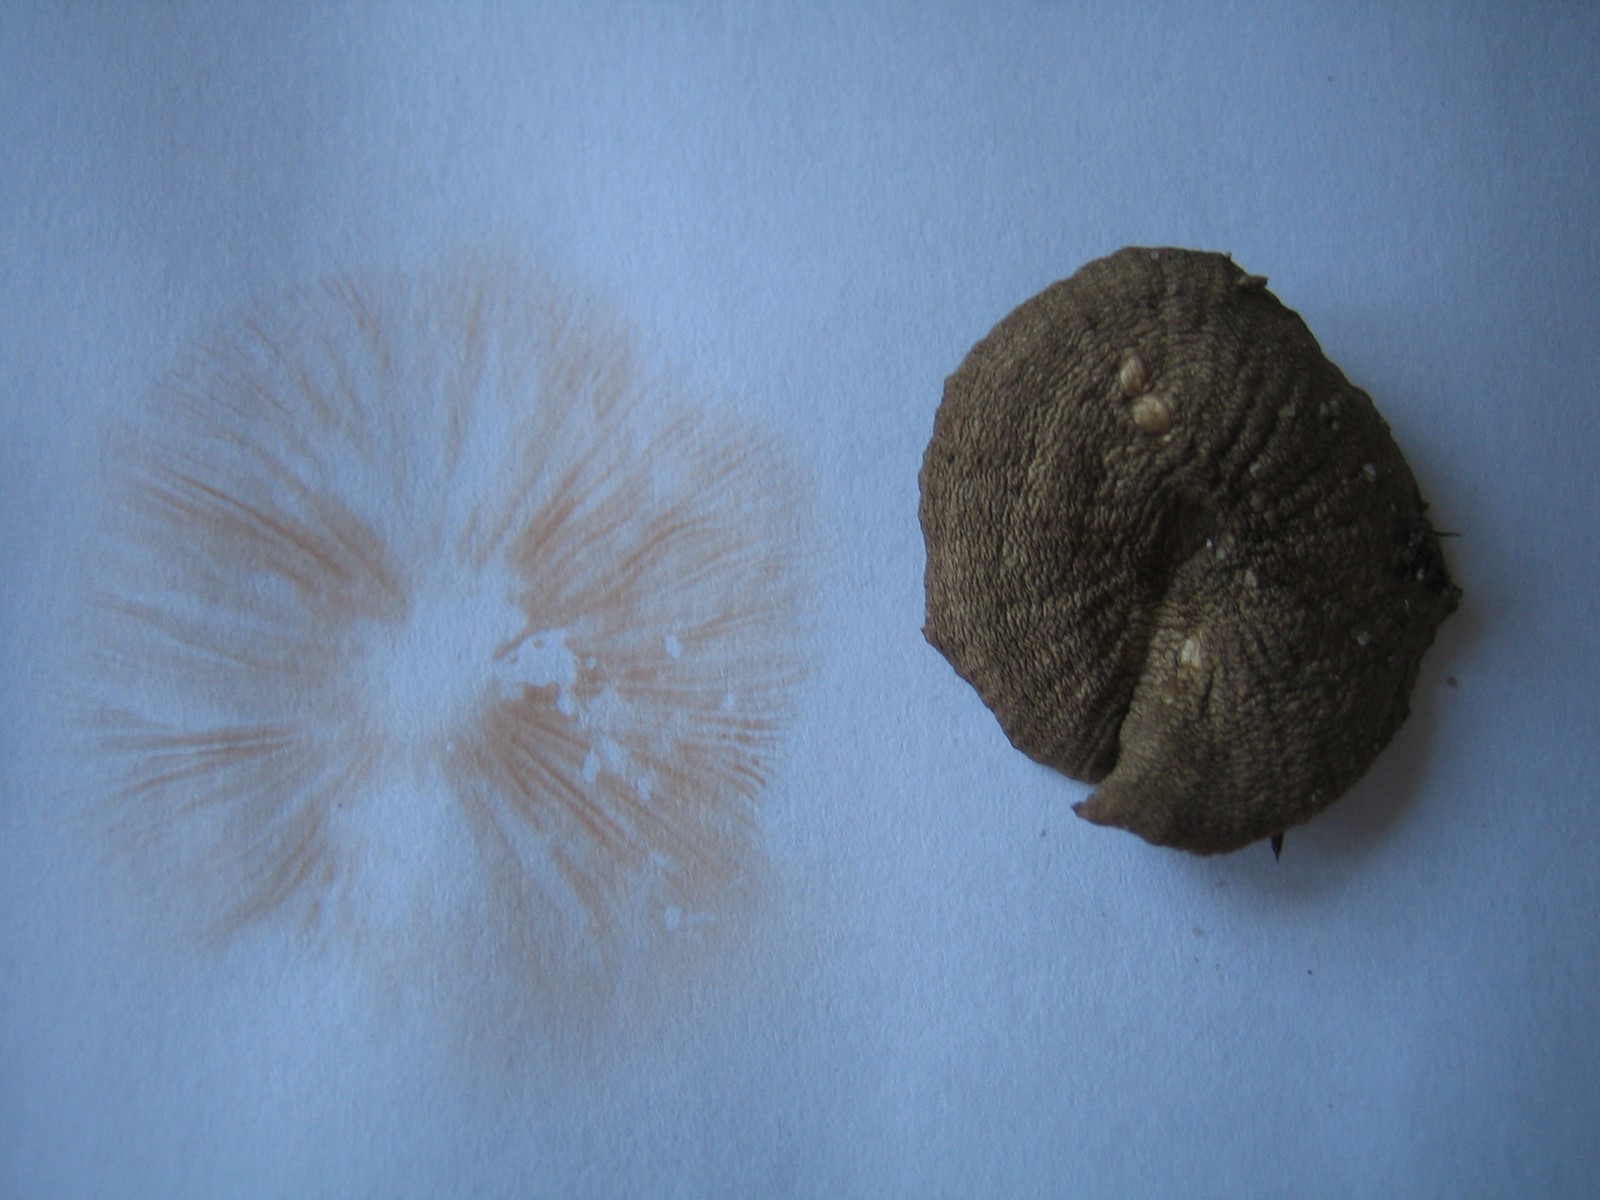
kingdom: Fungi
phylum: Basidiomycota
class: Agaricomycetes
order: Agaricales
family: Entolomataceae
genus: Entoloma
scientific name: Entoloma
